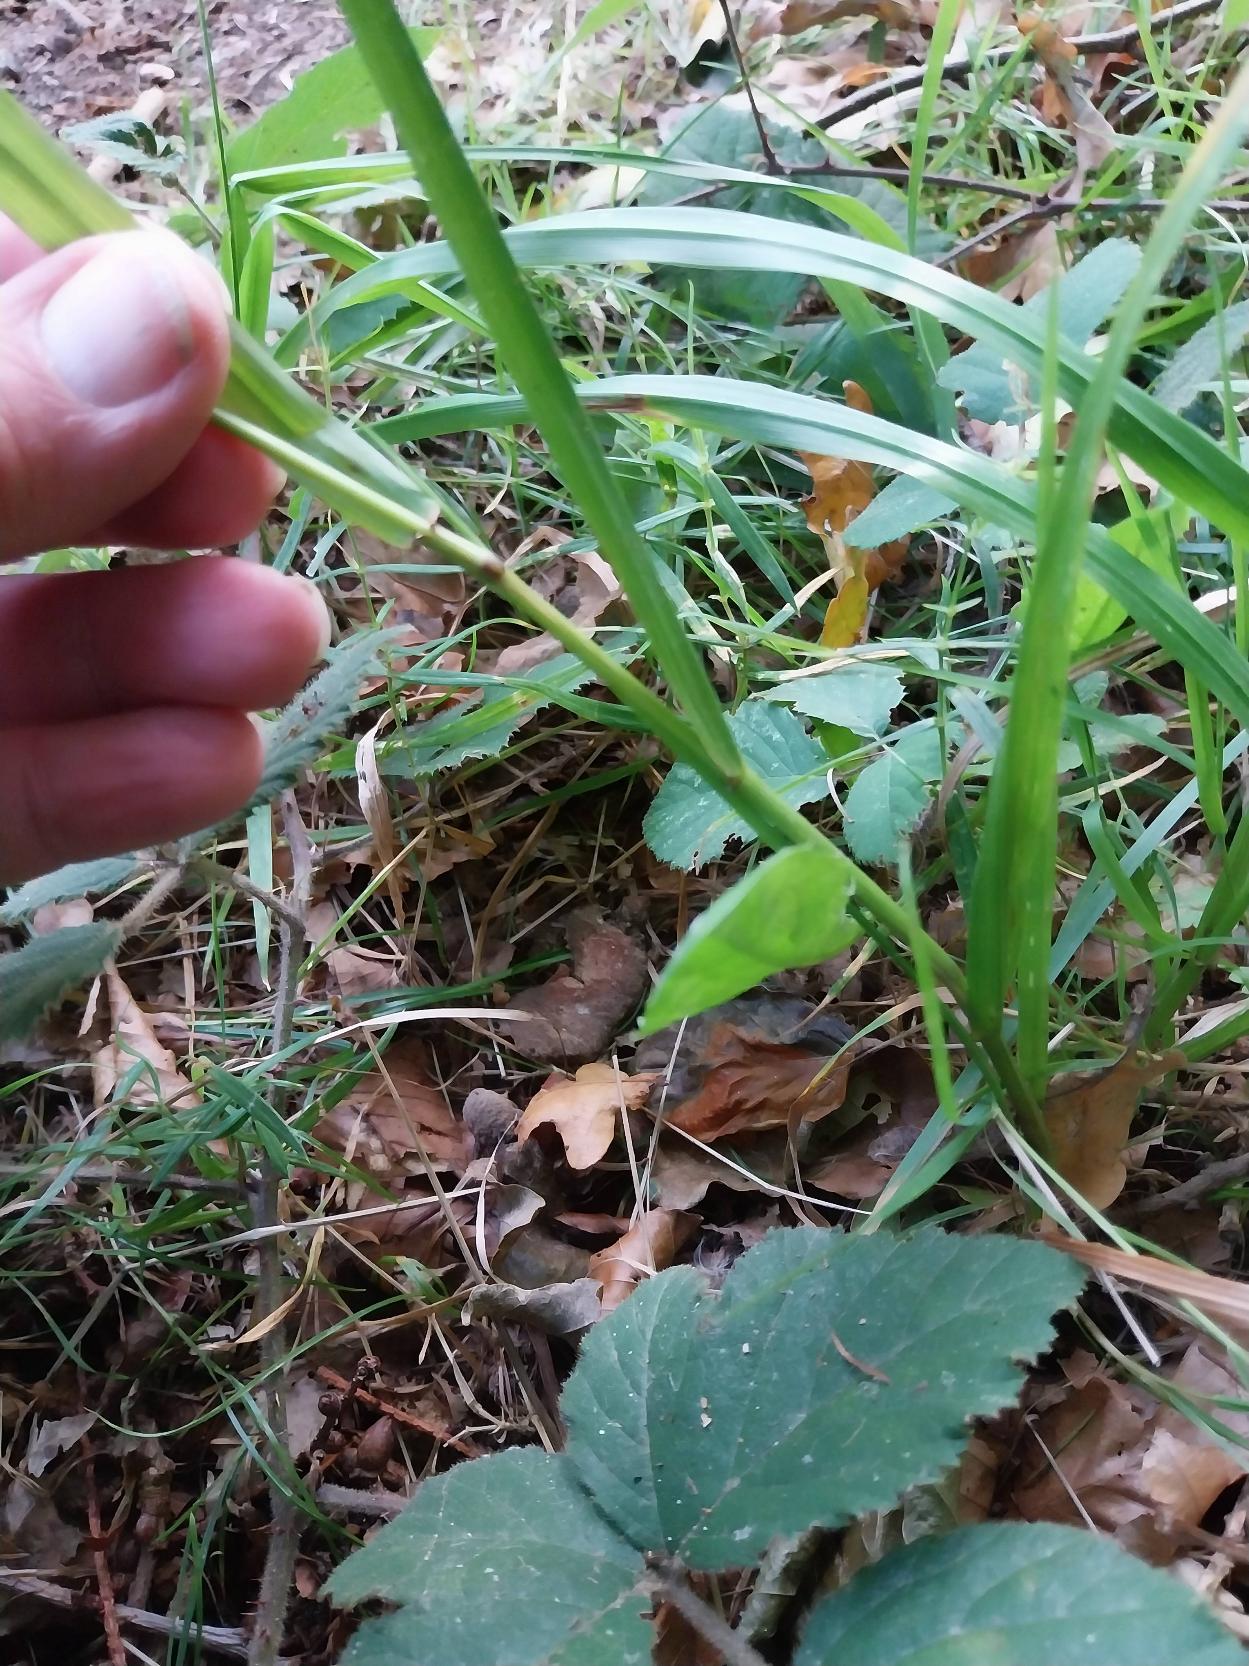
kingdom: Plantae
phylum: Tracheophyta
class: Liliopsida
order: Poales
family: Poaceae
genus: Lolium
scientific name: Lolium giganteum
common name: Kæmpe-svingel
